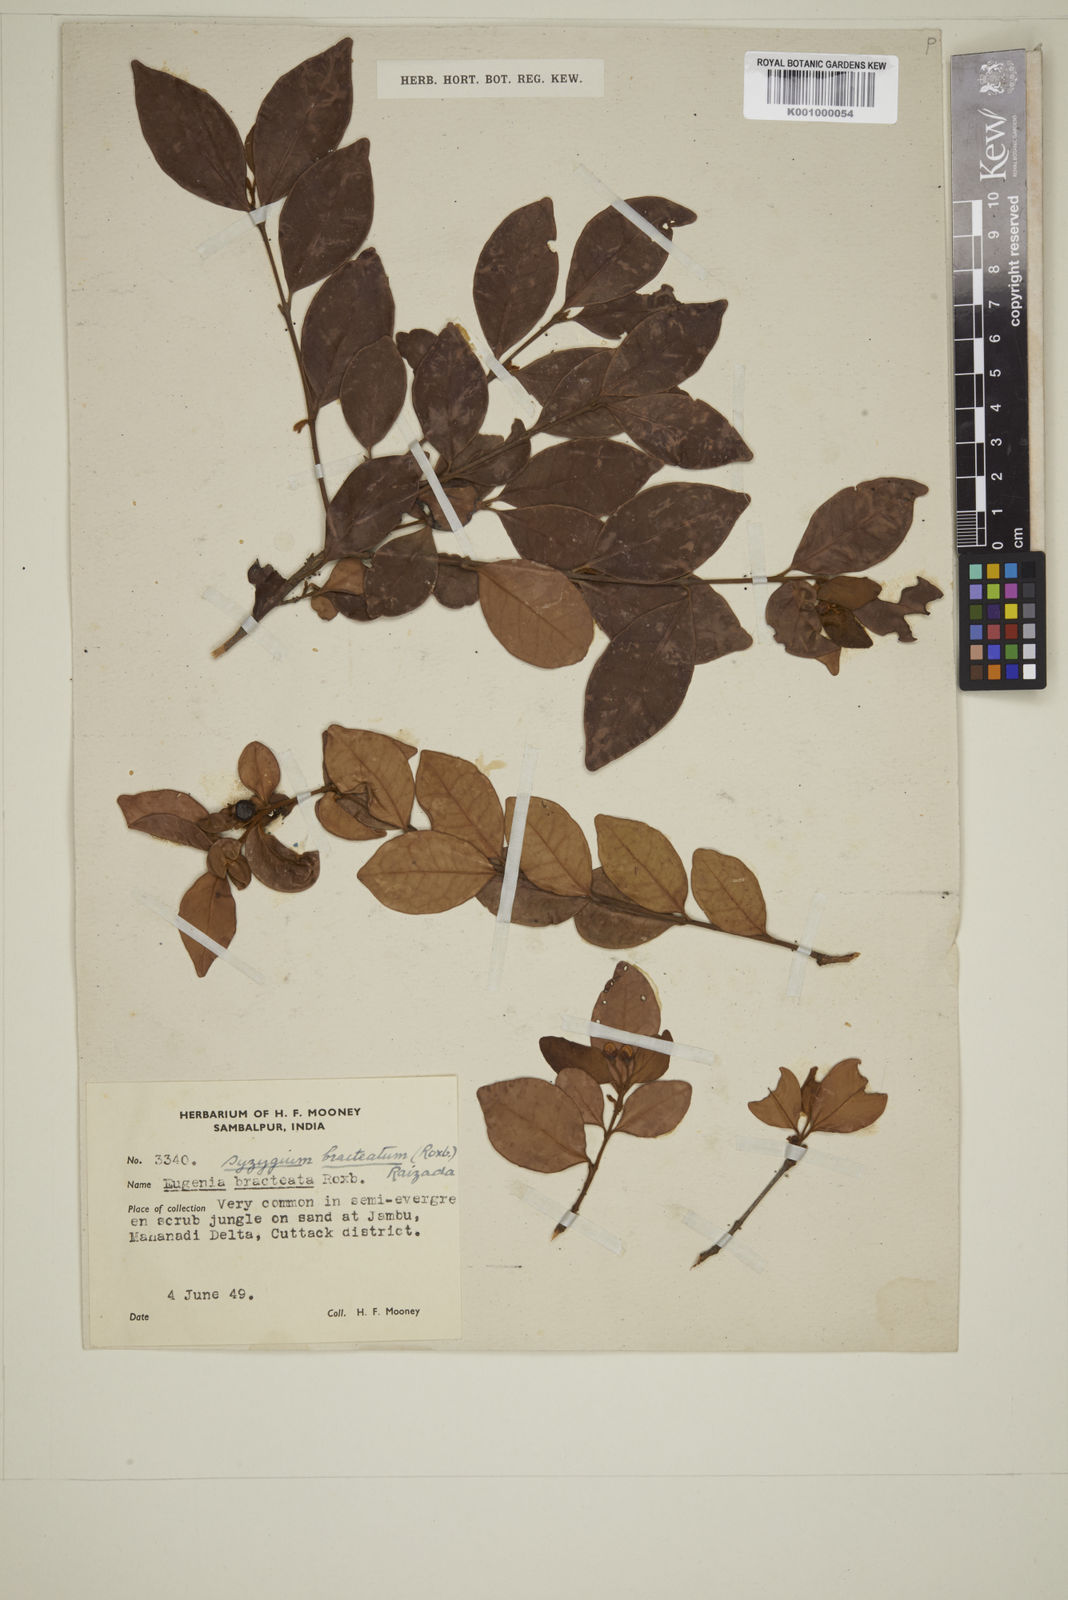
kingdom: Plantae
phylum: Tracheophyta
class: Magnoliopsida
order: Myrtales
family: Myrtaceae
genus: Myrcia
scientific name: Myrcia bracteata
